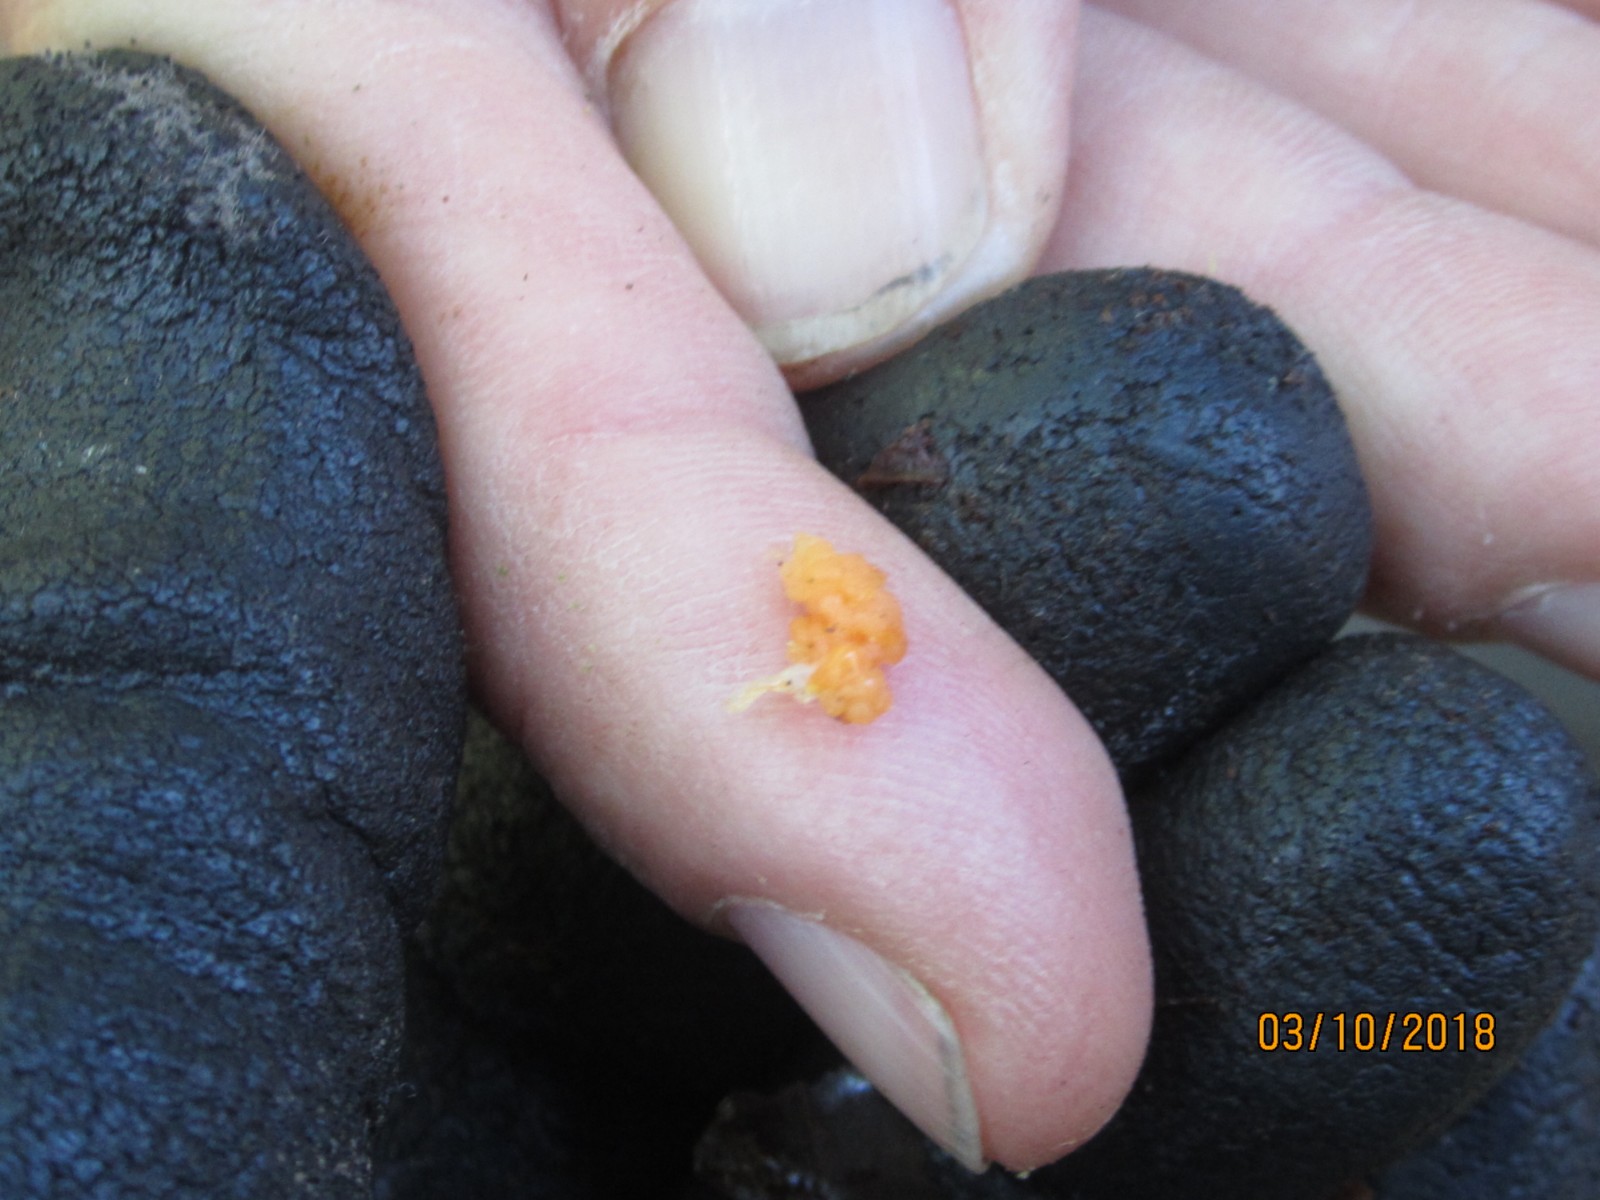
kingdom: Protozoa
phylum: Mycetozoa
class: Myxomycetes
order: Cribrariales
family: Tubiferaceae
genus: Tubifera
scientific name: Tubifera ferruginosa
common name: kanel-støvrør
